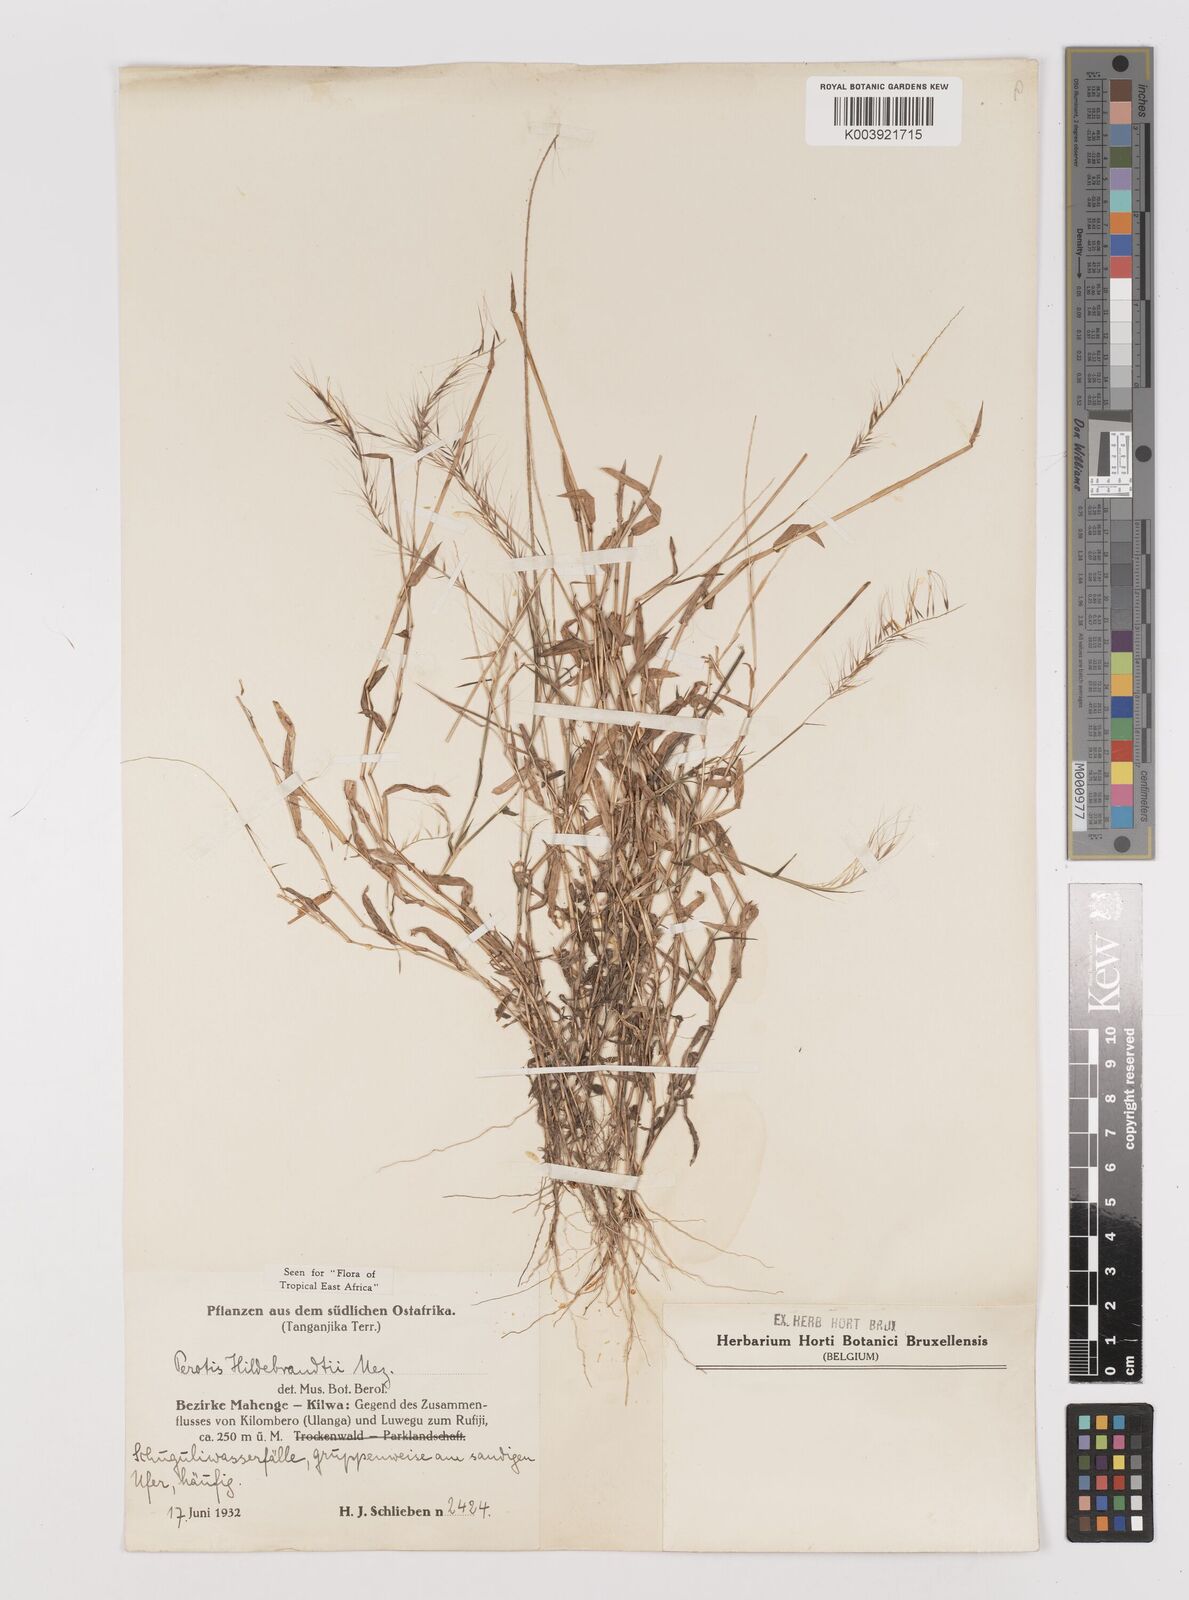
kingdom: Plantae
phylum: Tracheophyta
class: Liliopsida
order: Poales
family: Poaceae
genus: Perotis
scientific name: Perotis hildebrandtii
